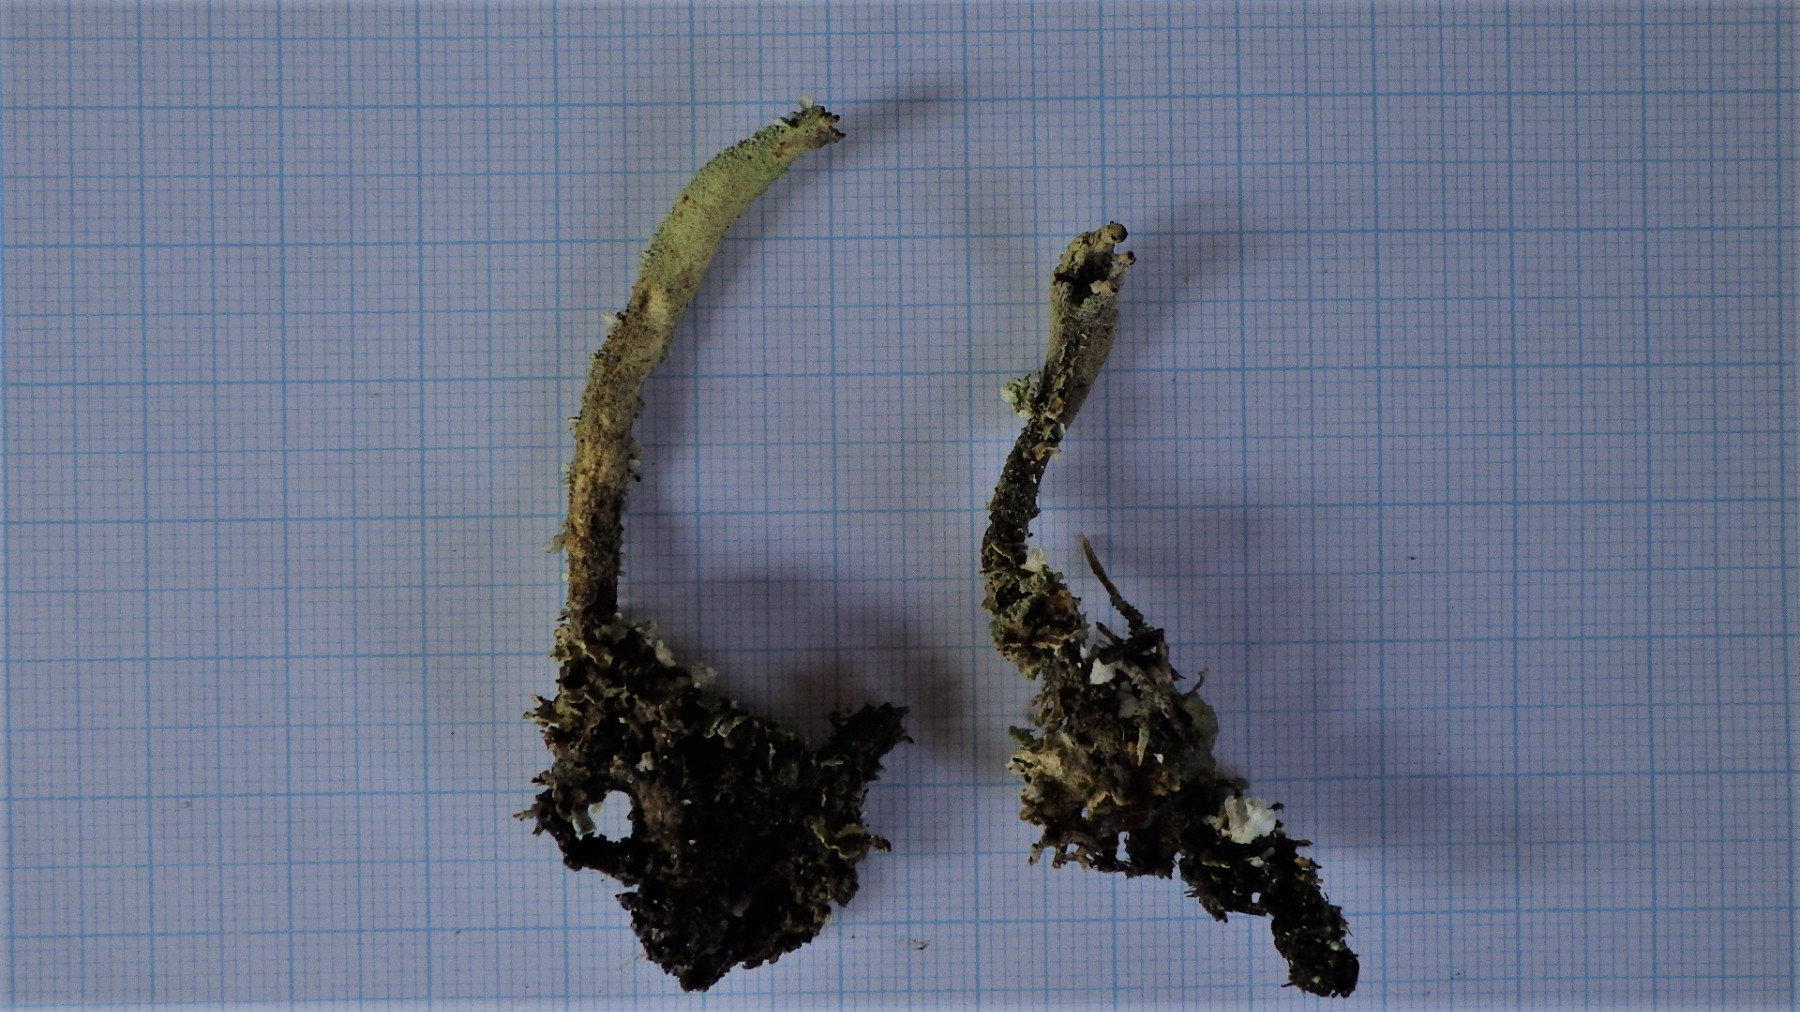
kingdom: Fungi
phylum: Ascomycota
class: Lecanoromycetes
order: Lecanorales
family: Cladoniaceae
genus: Cladonia
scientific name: Cladonia sulphurina
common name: opblæst bægerlav
